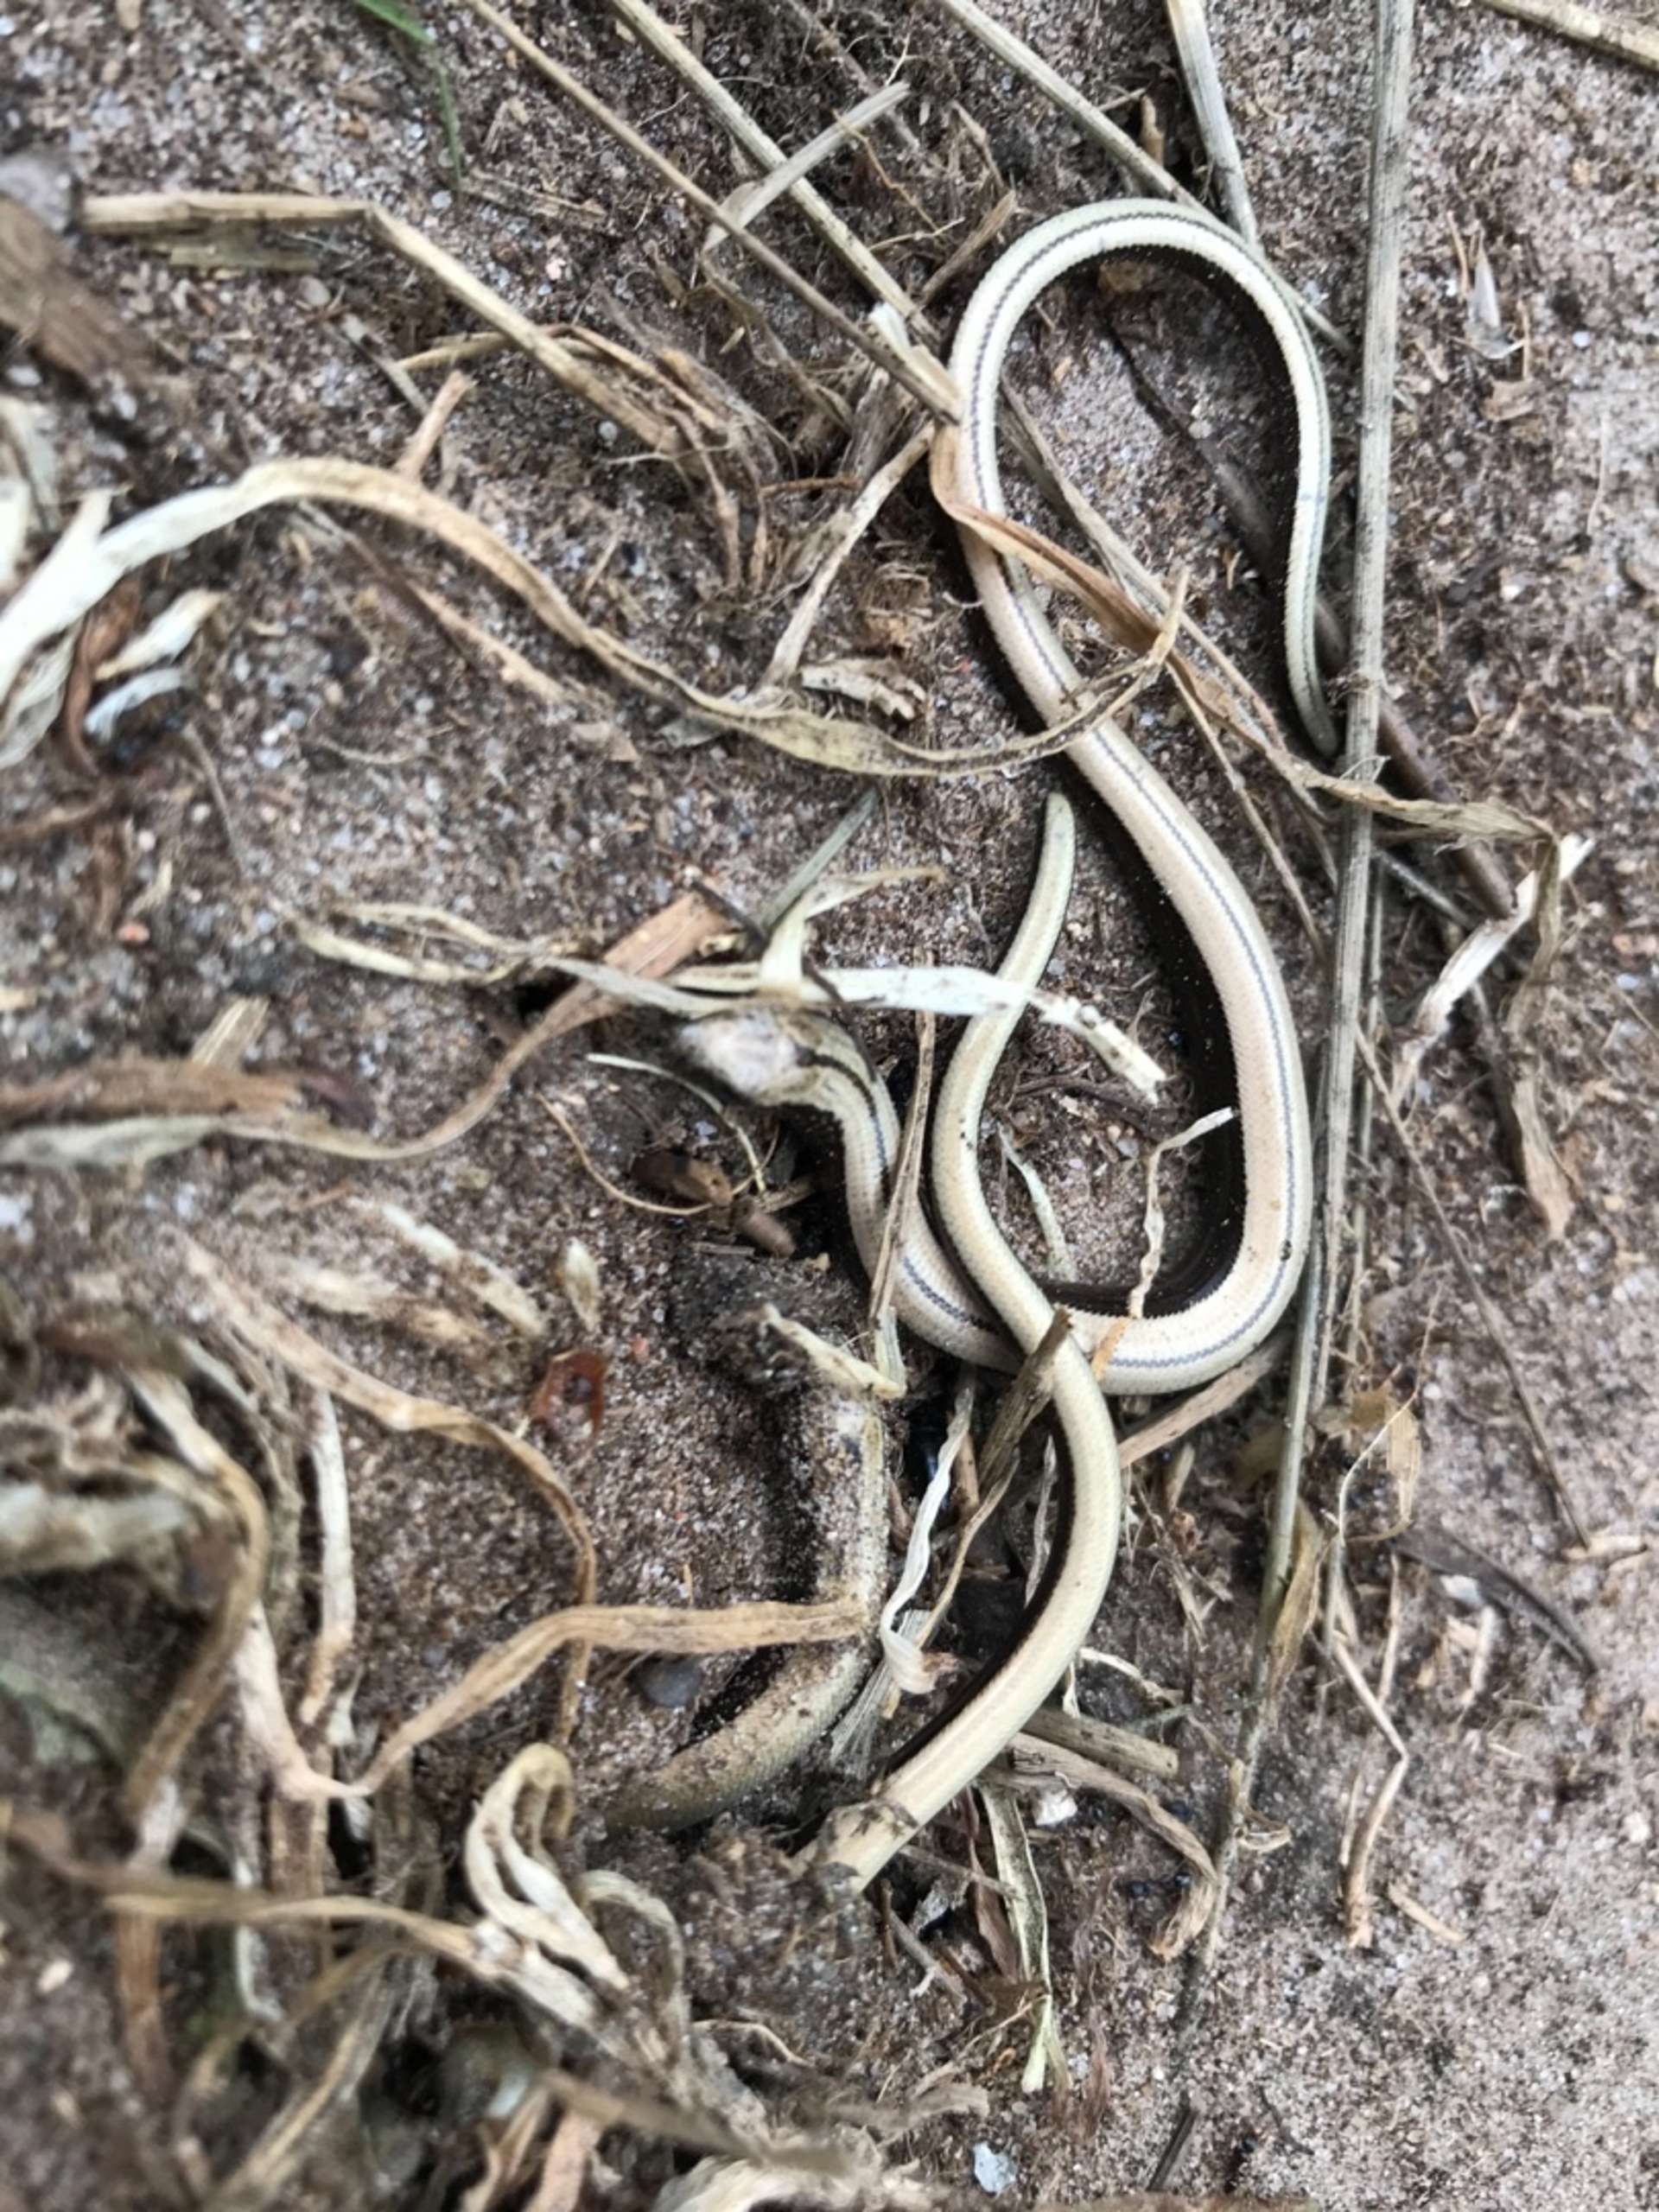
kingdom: Animalia
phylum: Chordata
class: Squamata
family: Anguidae
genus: Anguis
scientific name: Anguis fragilis
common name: Stålorm
